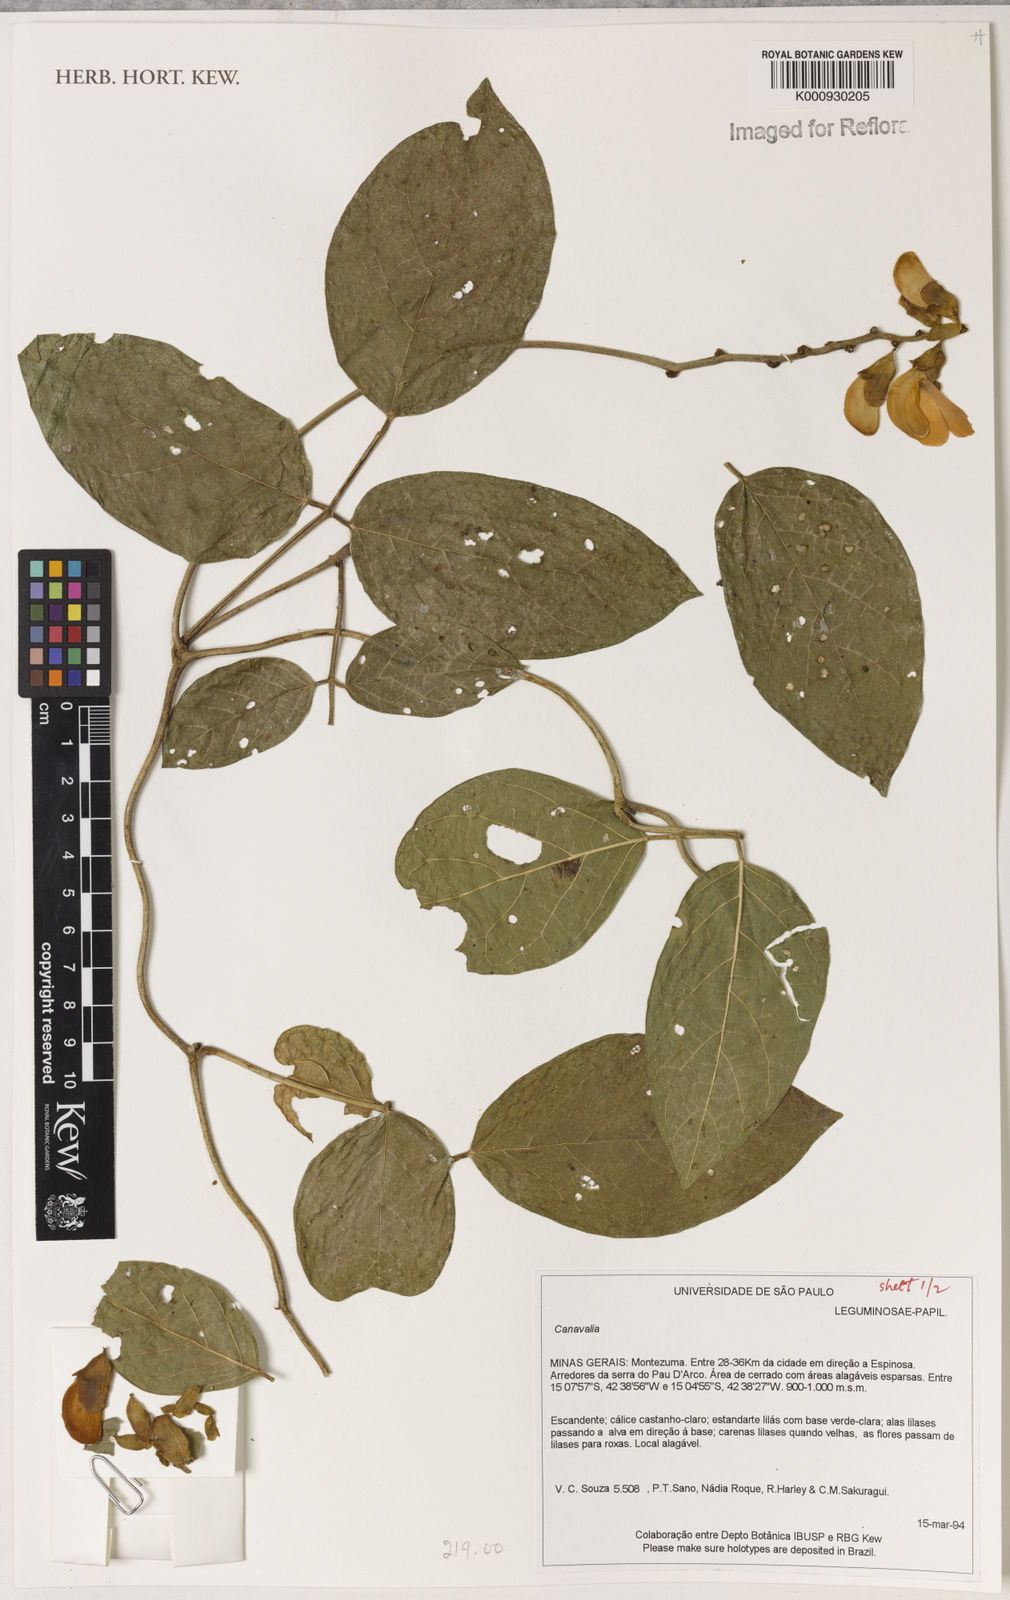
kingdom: Plantae
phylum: Tracheophyta
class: Magnoliopsida
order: Fabales
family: Fabaceae
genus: Canavalia
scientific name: Canavalia
